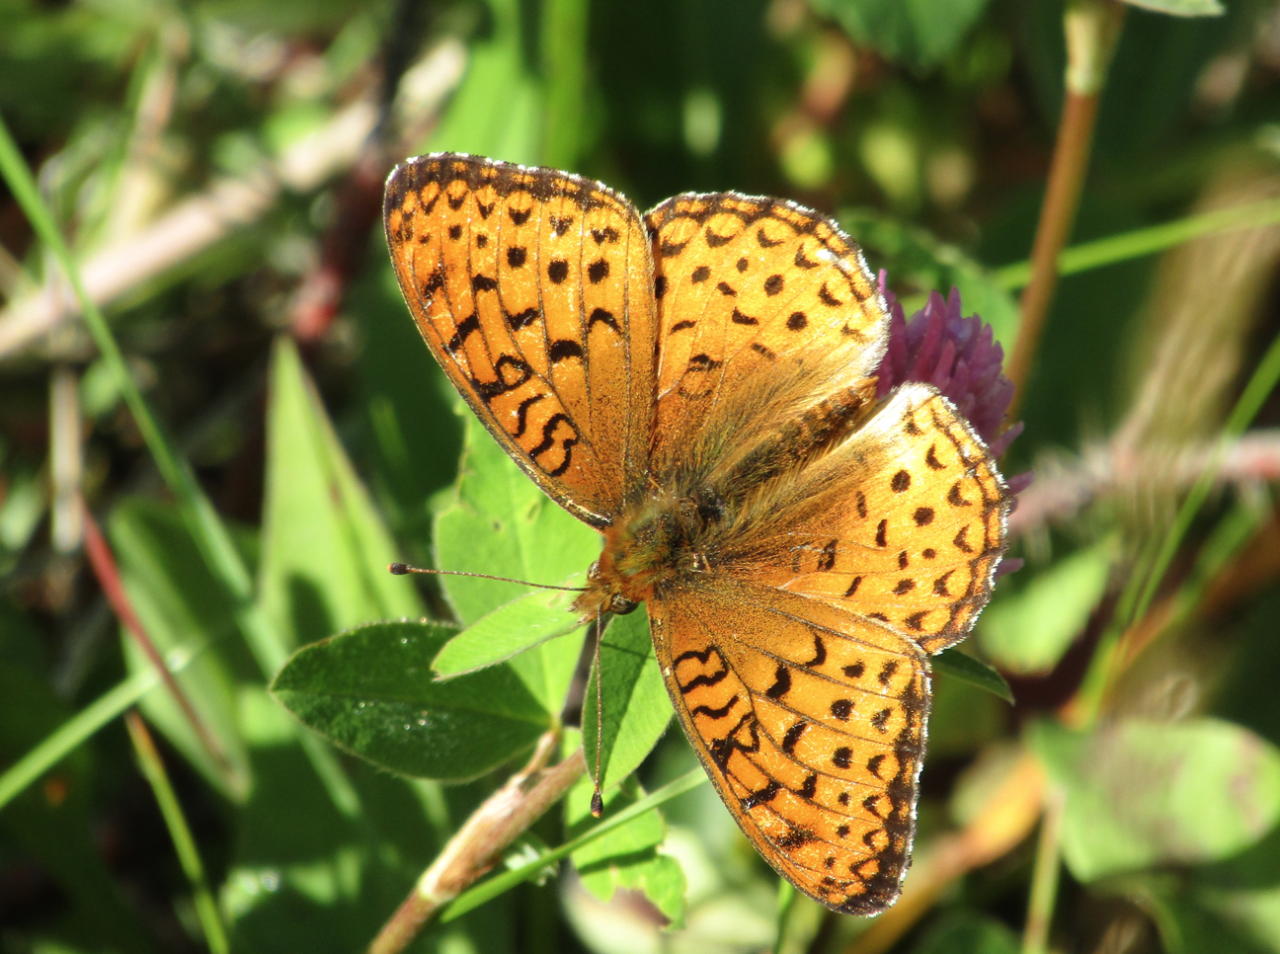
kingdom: Animalia
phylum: Arthropoda
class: Insecta
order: Lepidoptera
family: Nymphalidae
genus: Speyeria
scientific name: Speyeria mormonia
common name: Mormon Fritillary
